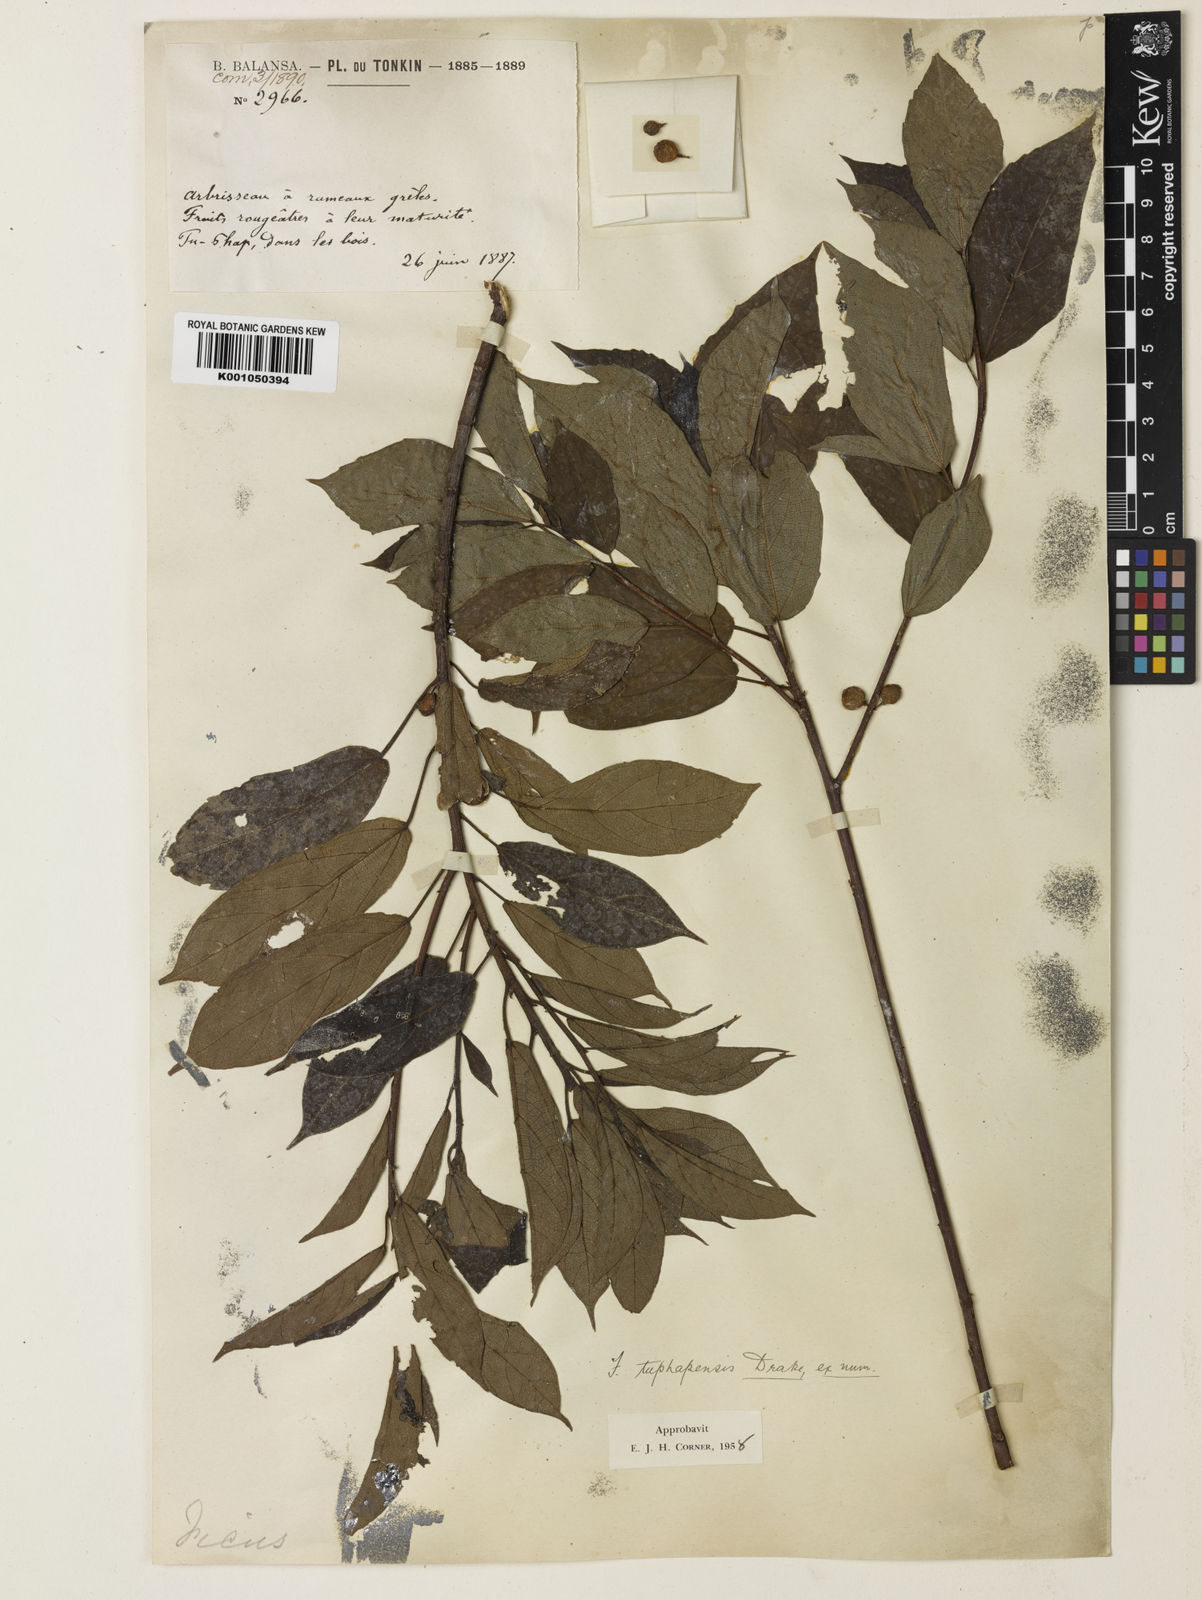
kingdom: Plantae
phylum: Tracheophyta
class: Magnoliopsida
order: Rosales
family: Moraceae
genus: Ficus
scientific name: Ficus tuphapensis
